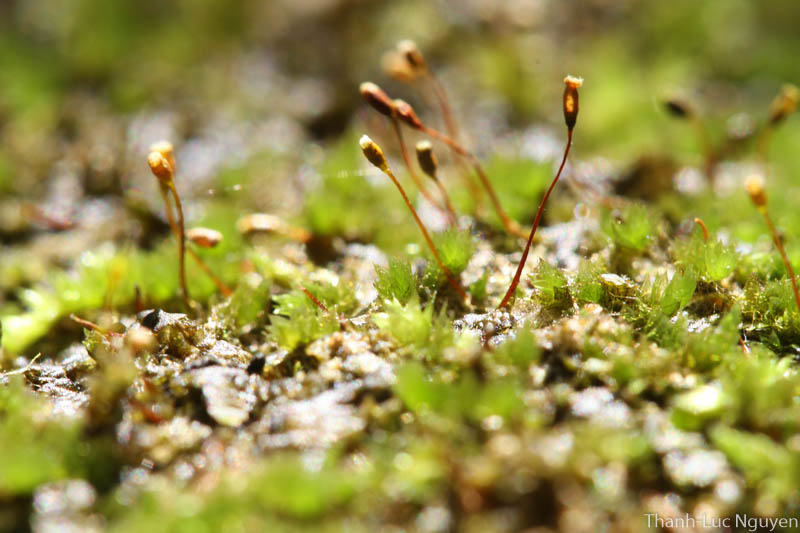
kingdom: Plantae
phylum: Bryophyta
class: Bryopsida
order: Hypnales
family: Sematophyllaceae
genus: Acroporium
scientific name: Acroporium
